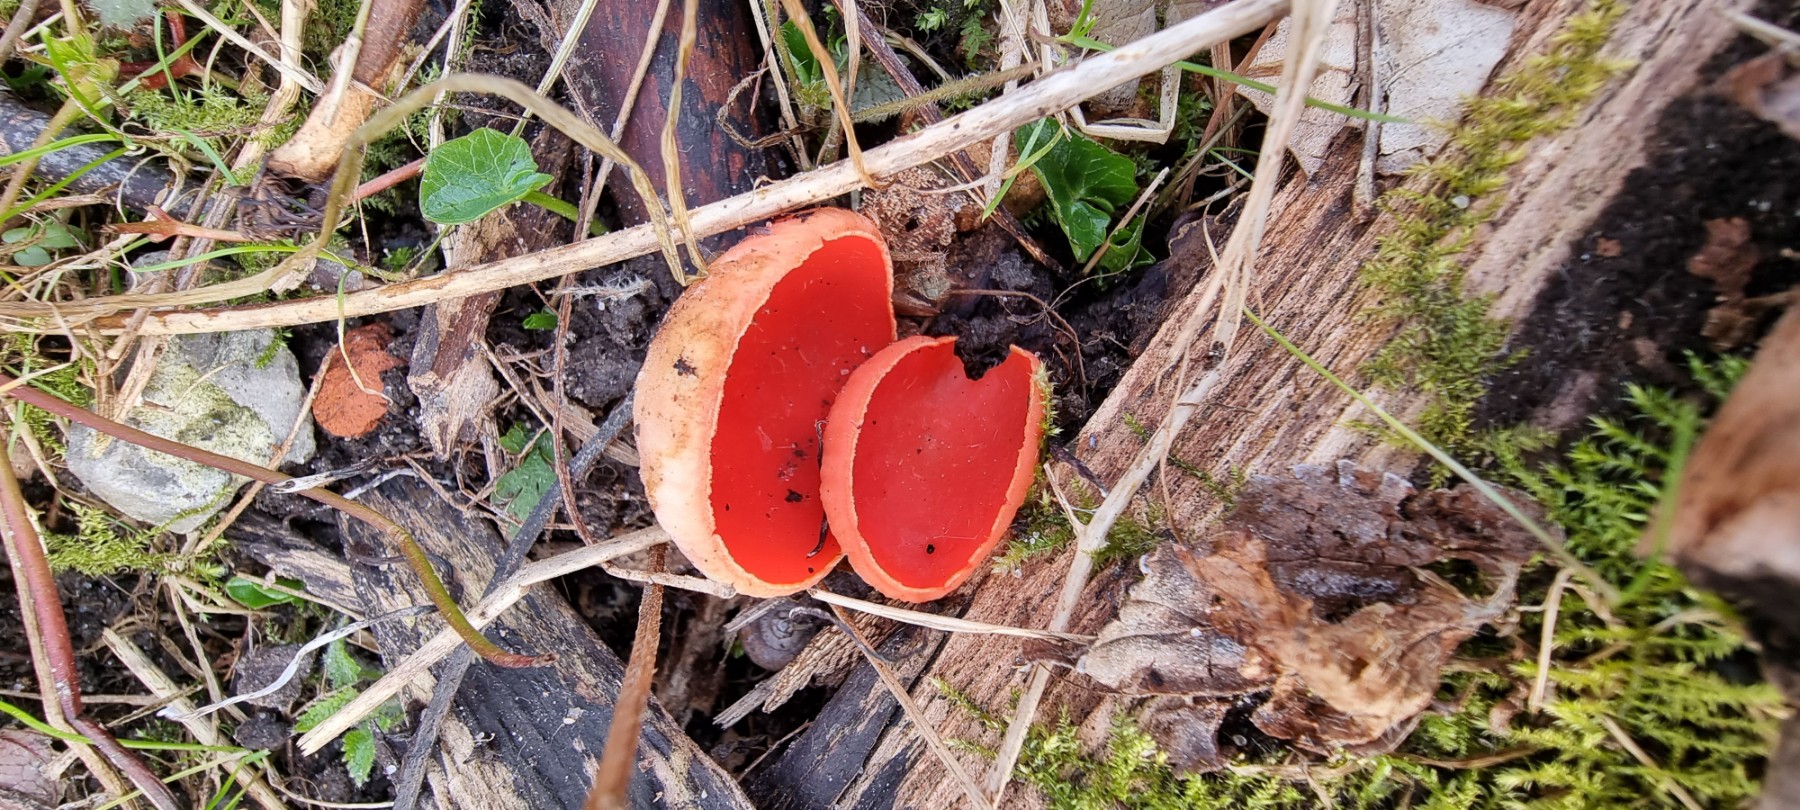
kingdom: Fungi
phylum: Ascomycota
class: Pezizomycetes
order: Pezizales
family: Sarcoscyphaceae
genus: Sarcoscypha
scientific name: Sarcoscypha coccinea
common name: skarlagen-pragtbæger
